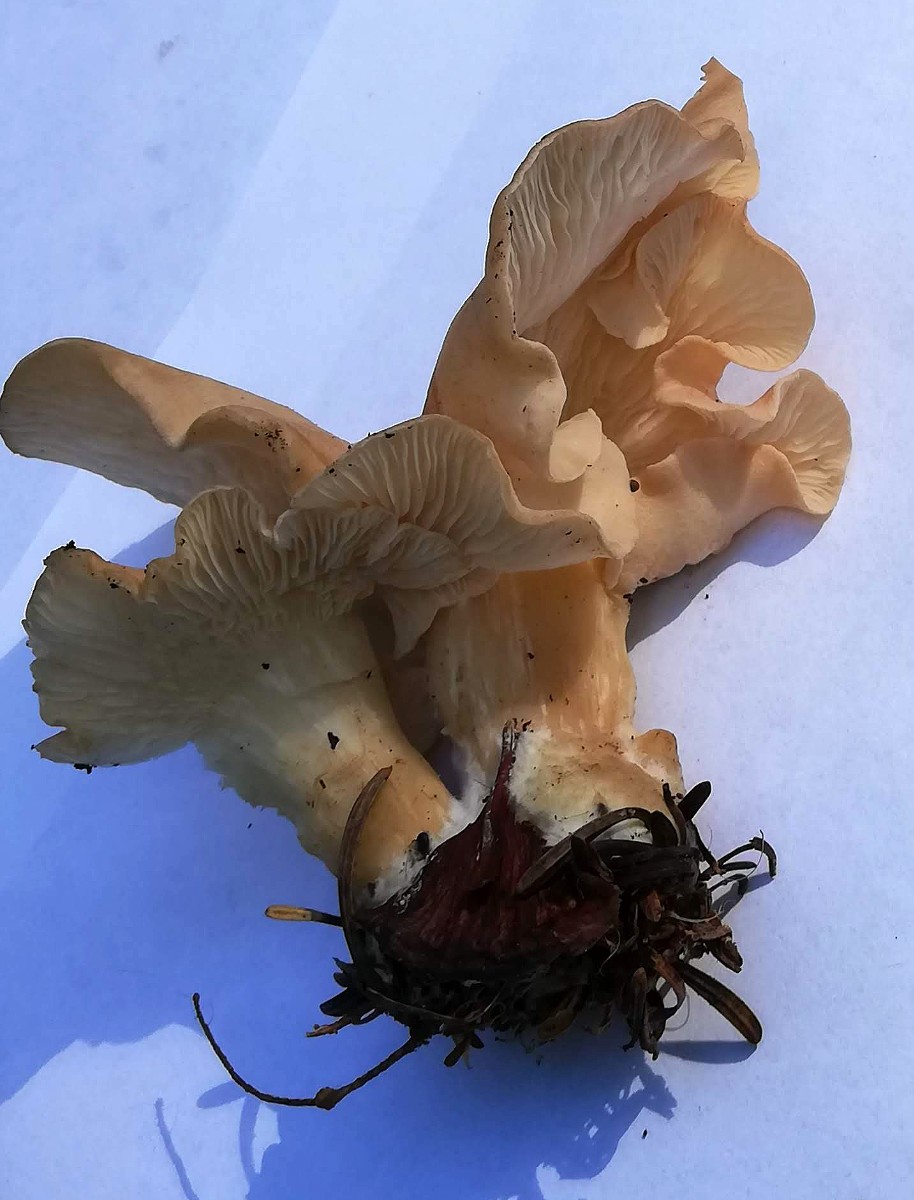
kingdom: Fungi
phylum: Basidiomycota
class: Agaricomycetes
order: Agaricales
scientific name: Agaricales
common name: champignonordenen
